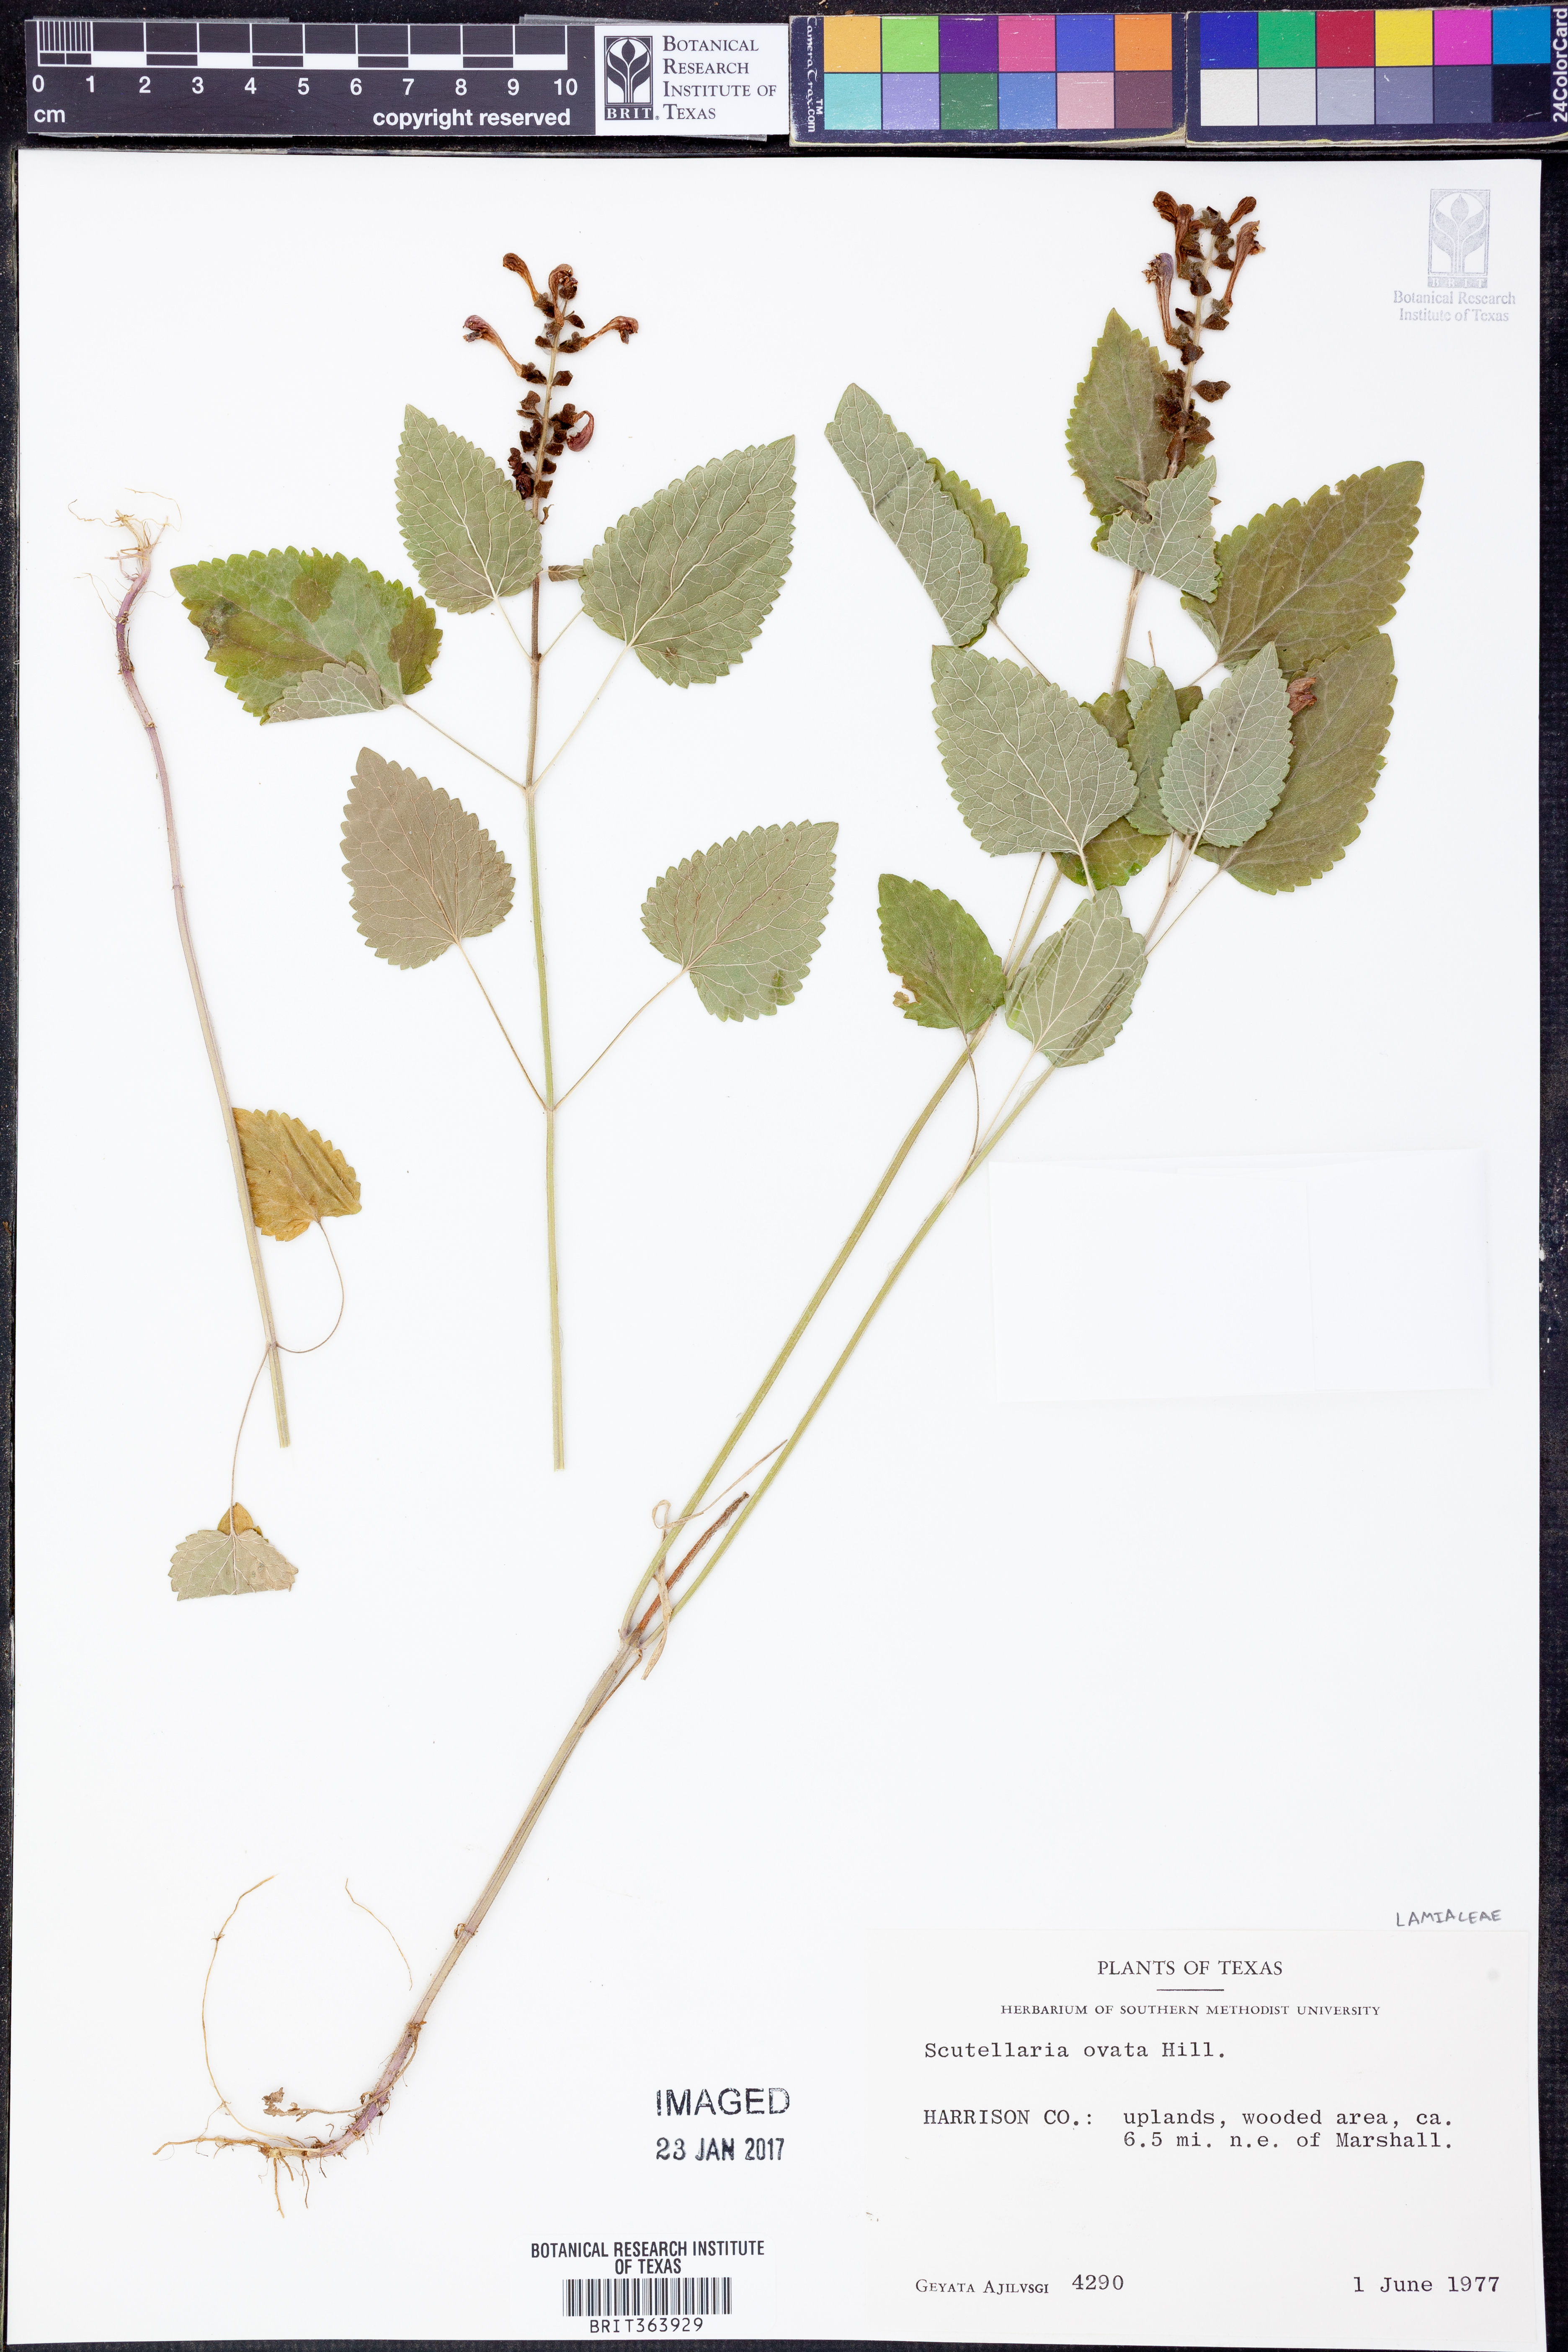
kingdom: Plantae
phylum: Tracheophyta
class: Magnoliopsida
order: Lamiales
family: Lamiaceae
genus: Scutellaria
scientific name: Scutellaria ovata
